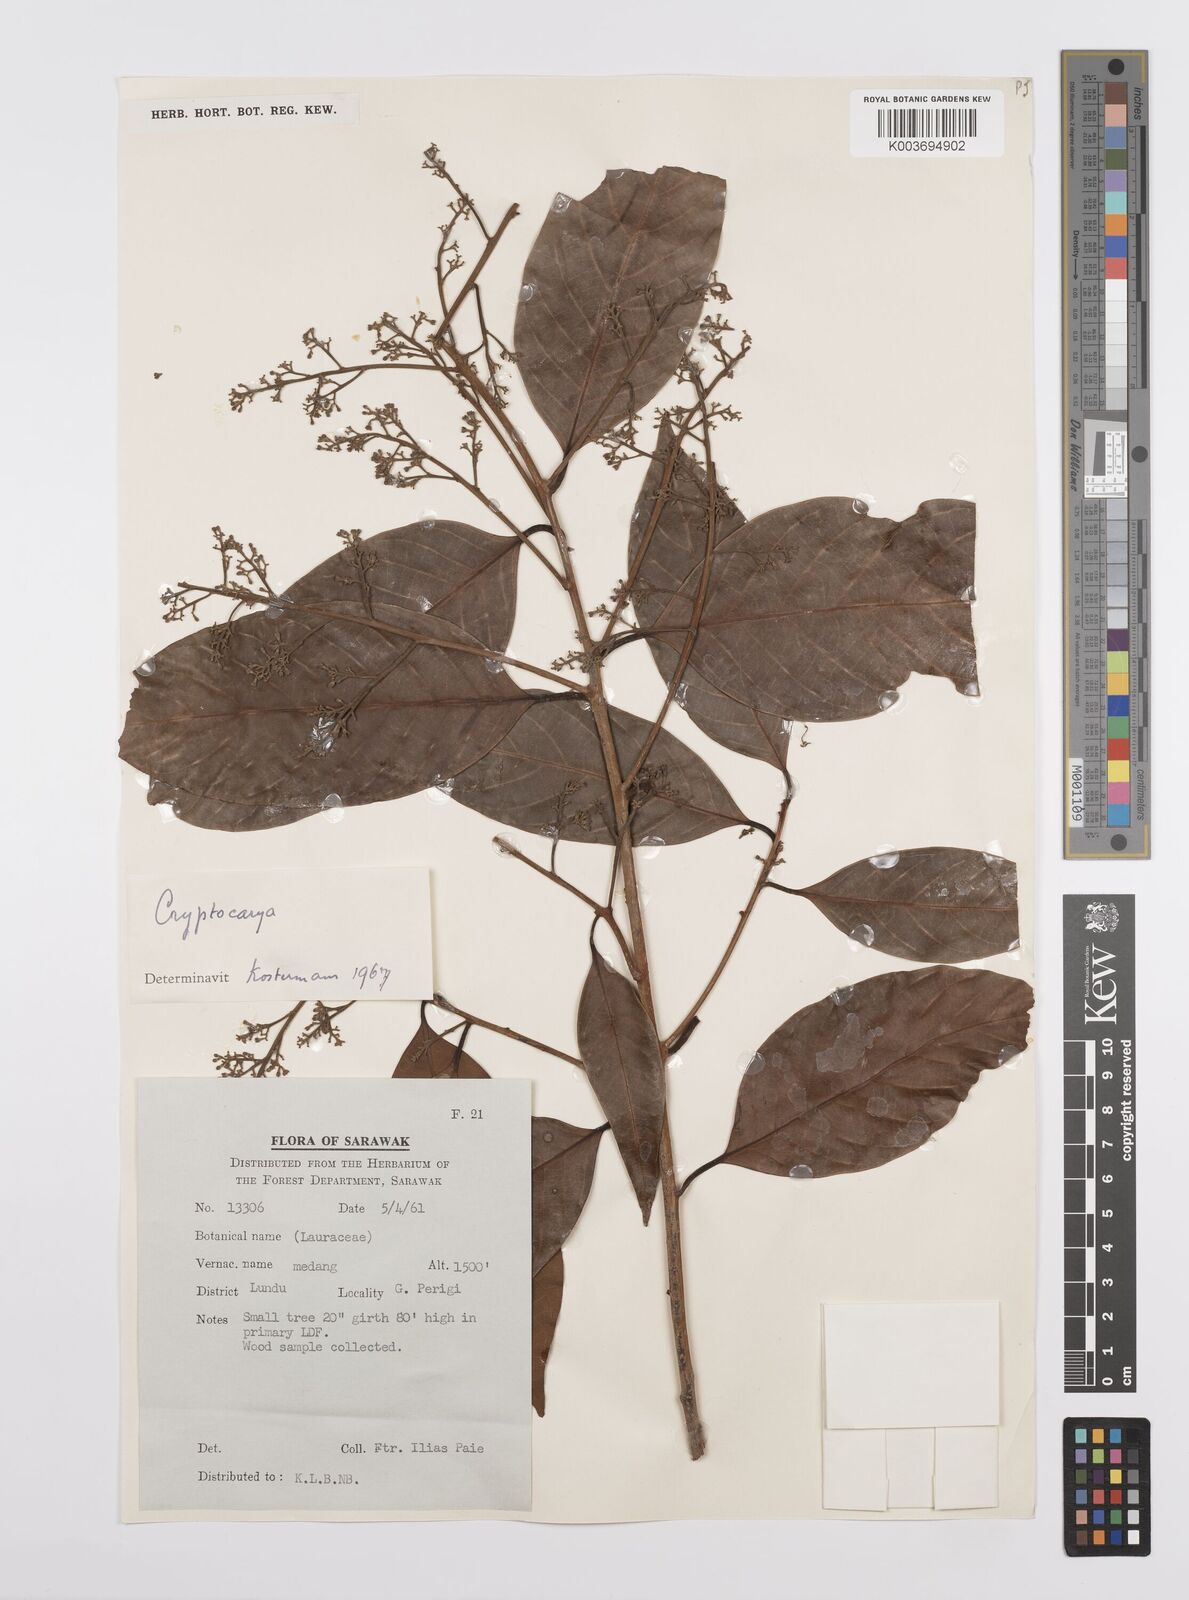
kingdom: Plantae
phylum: Tracheophyta
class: Magnoliopsida
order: Laurales
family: Lauraceae
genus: Cryptocarya
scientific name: Cryptocarya
